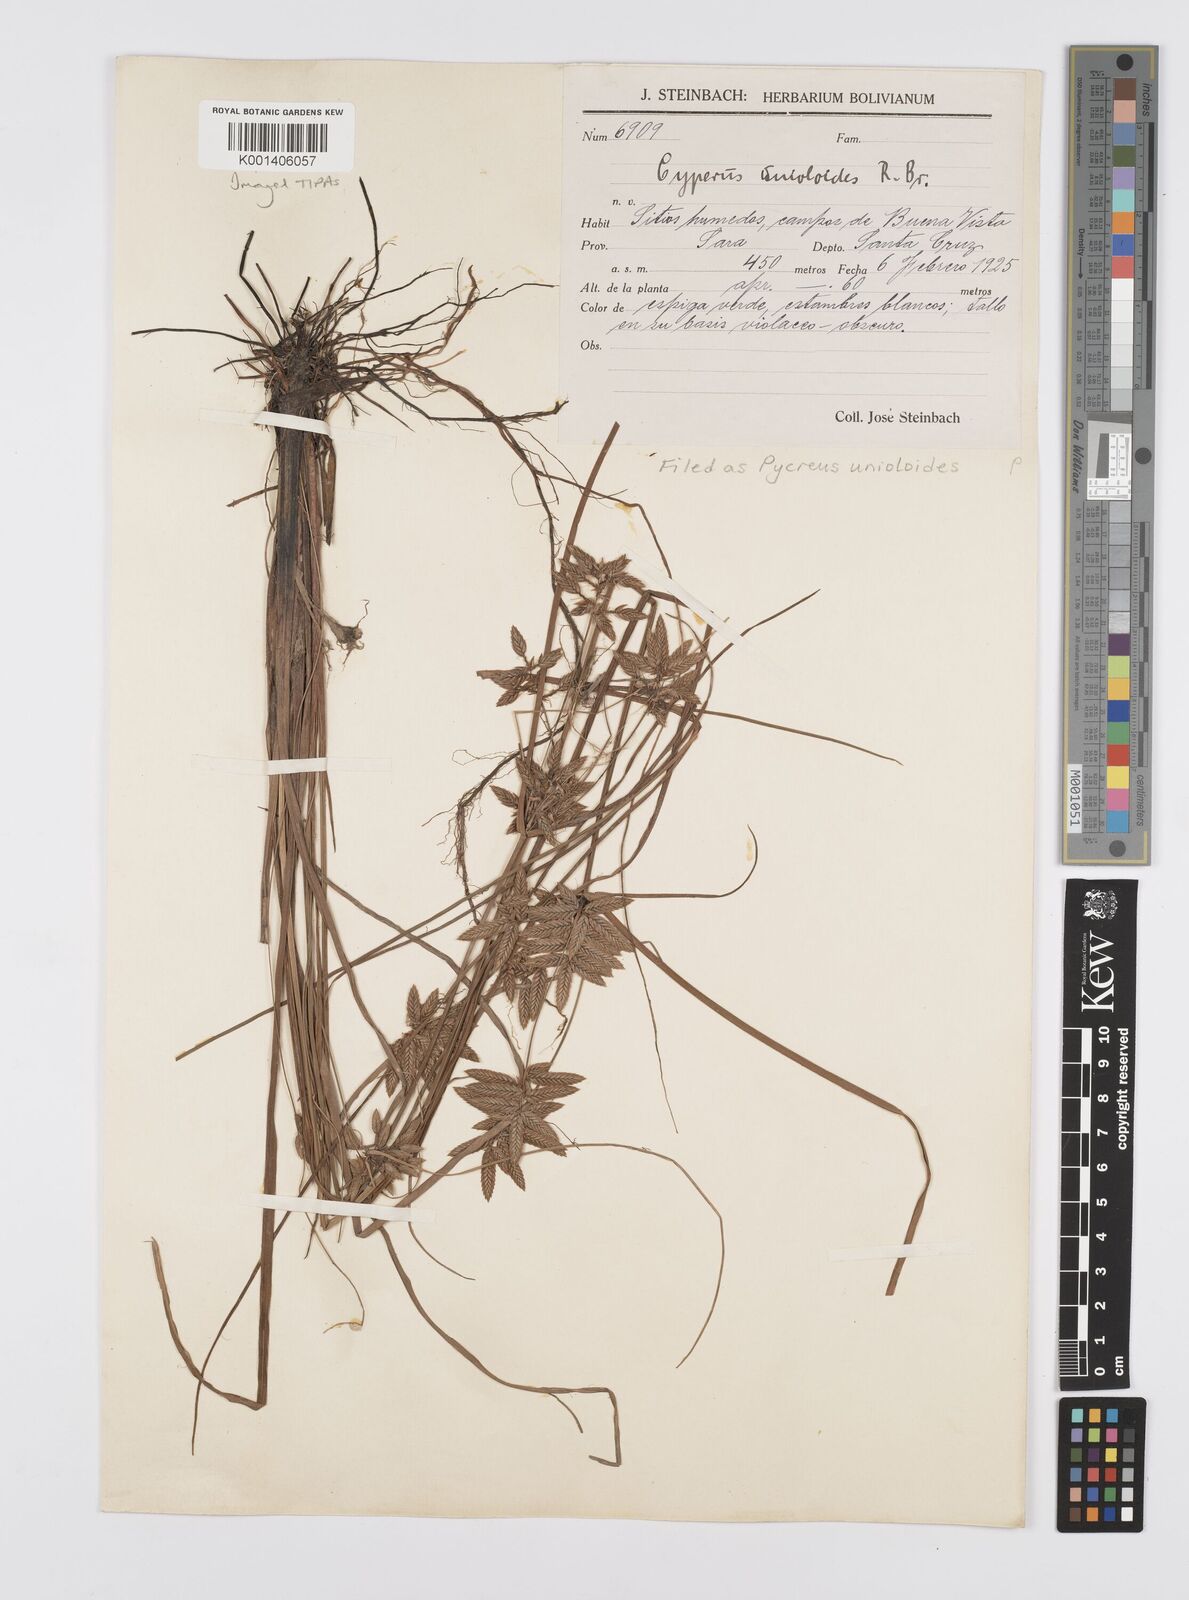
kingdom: Plantae
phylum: Tracheophyta
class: Liliopsida
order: Poales
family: Cyperaceae
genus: Cyperus
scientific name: Cyperus unioloides
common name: Uniola flatsedge
